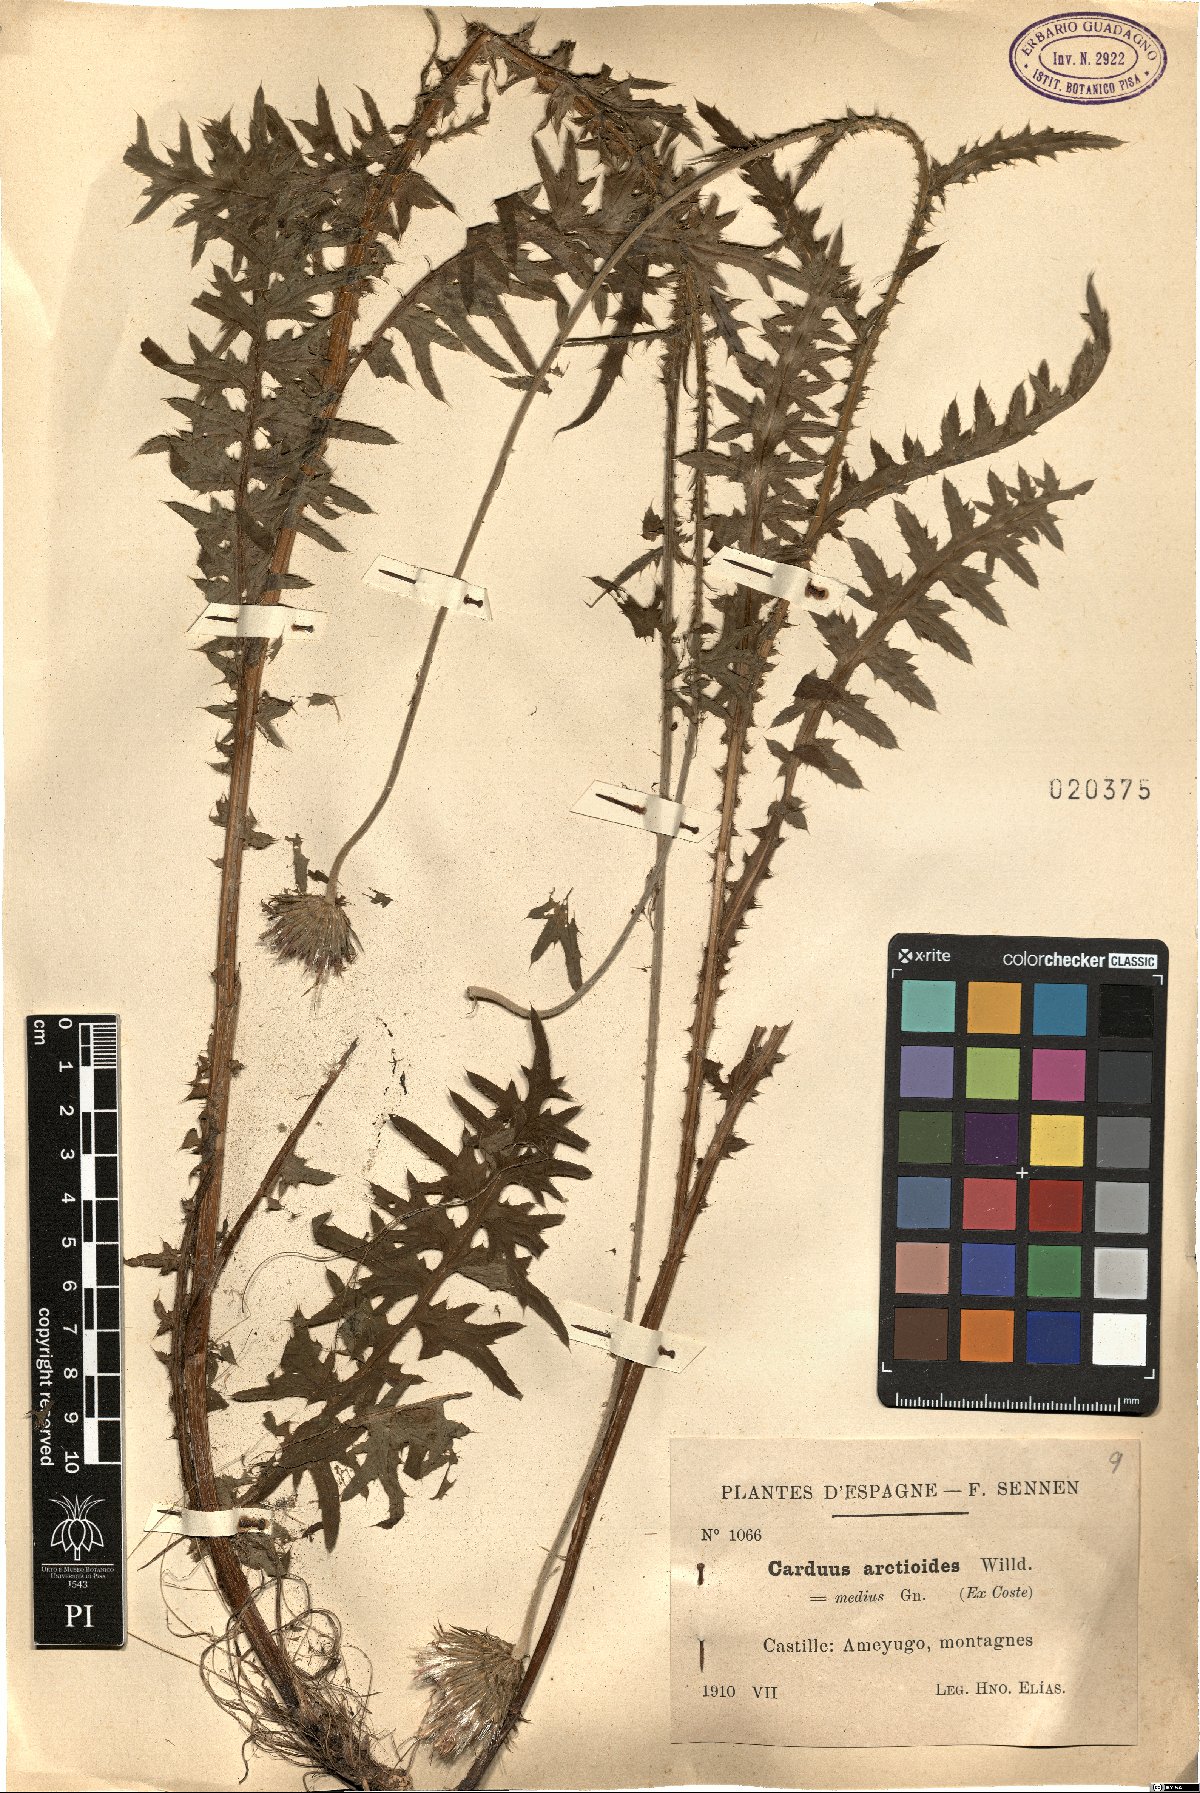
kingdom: Plantae
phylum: Tracheophyta
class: Magnoliopsida
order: Asterales
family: Asteraceae
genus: Carduus
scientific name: Carduus carduelis
